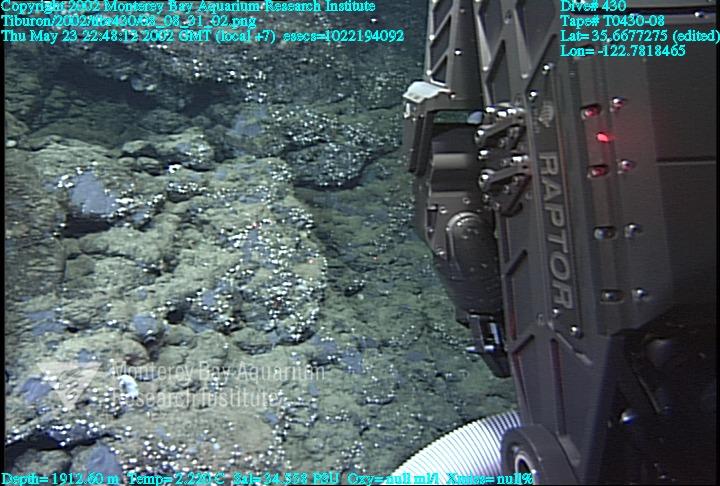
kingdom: Animalia
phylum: Porifera
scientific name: Porifera
